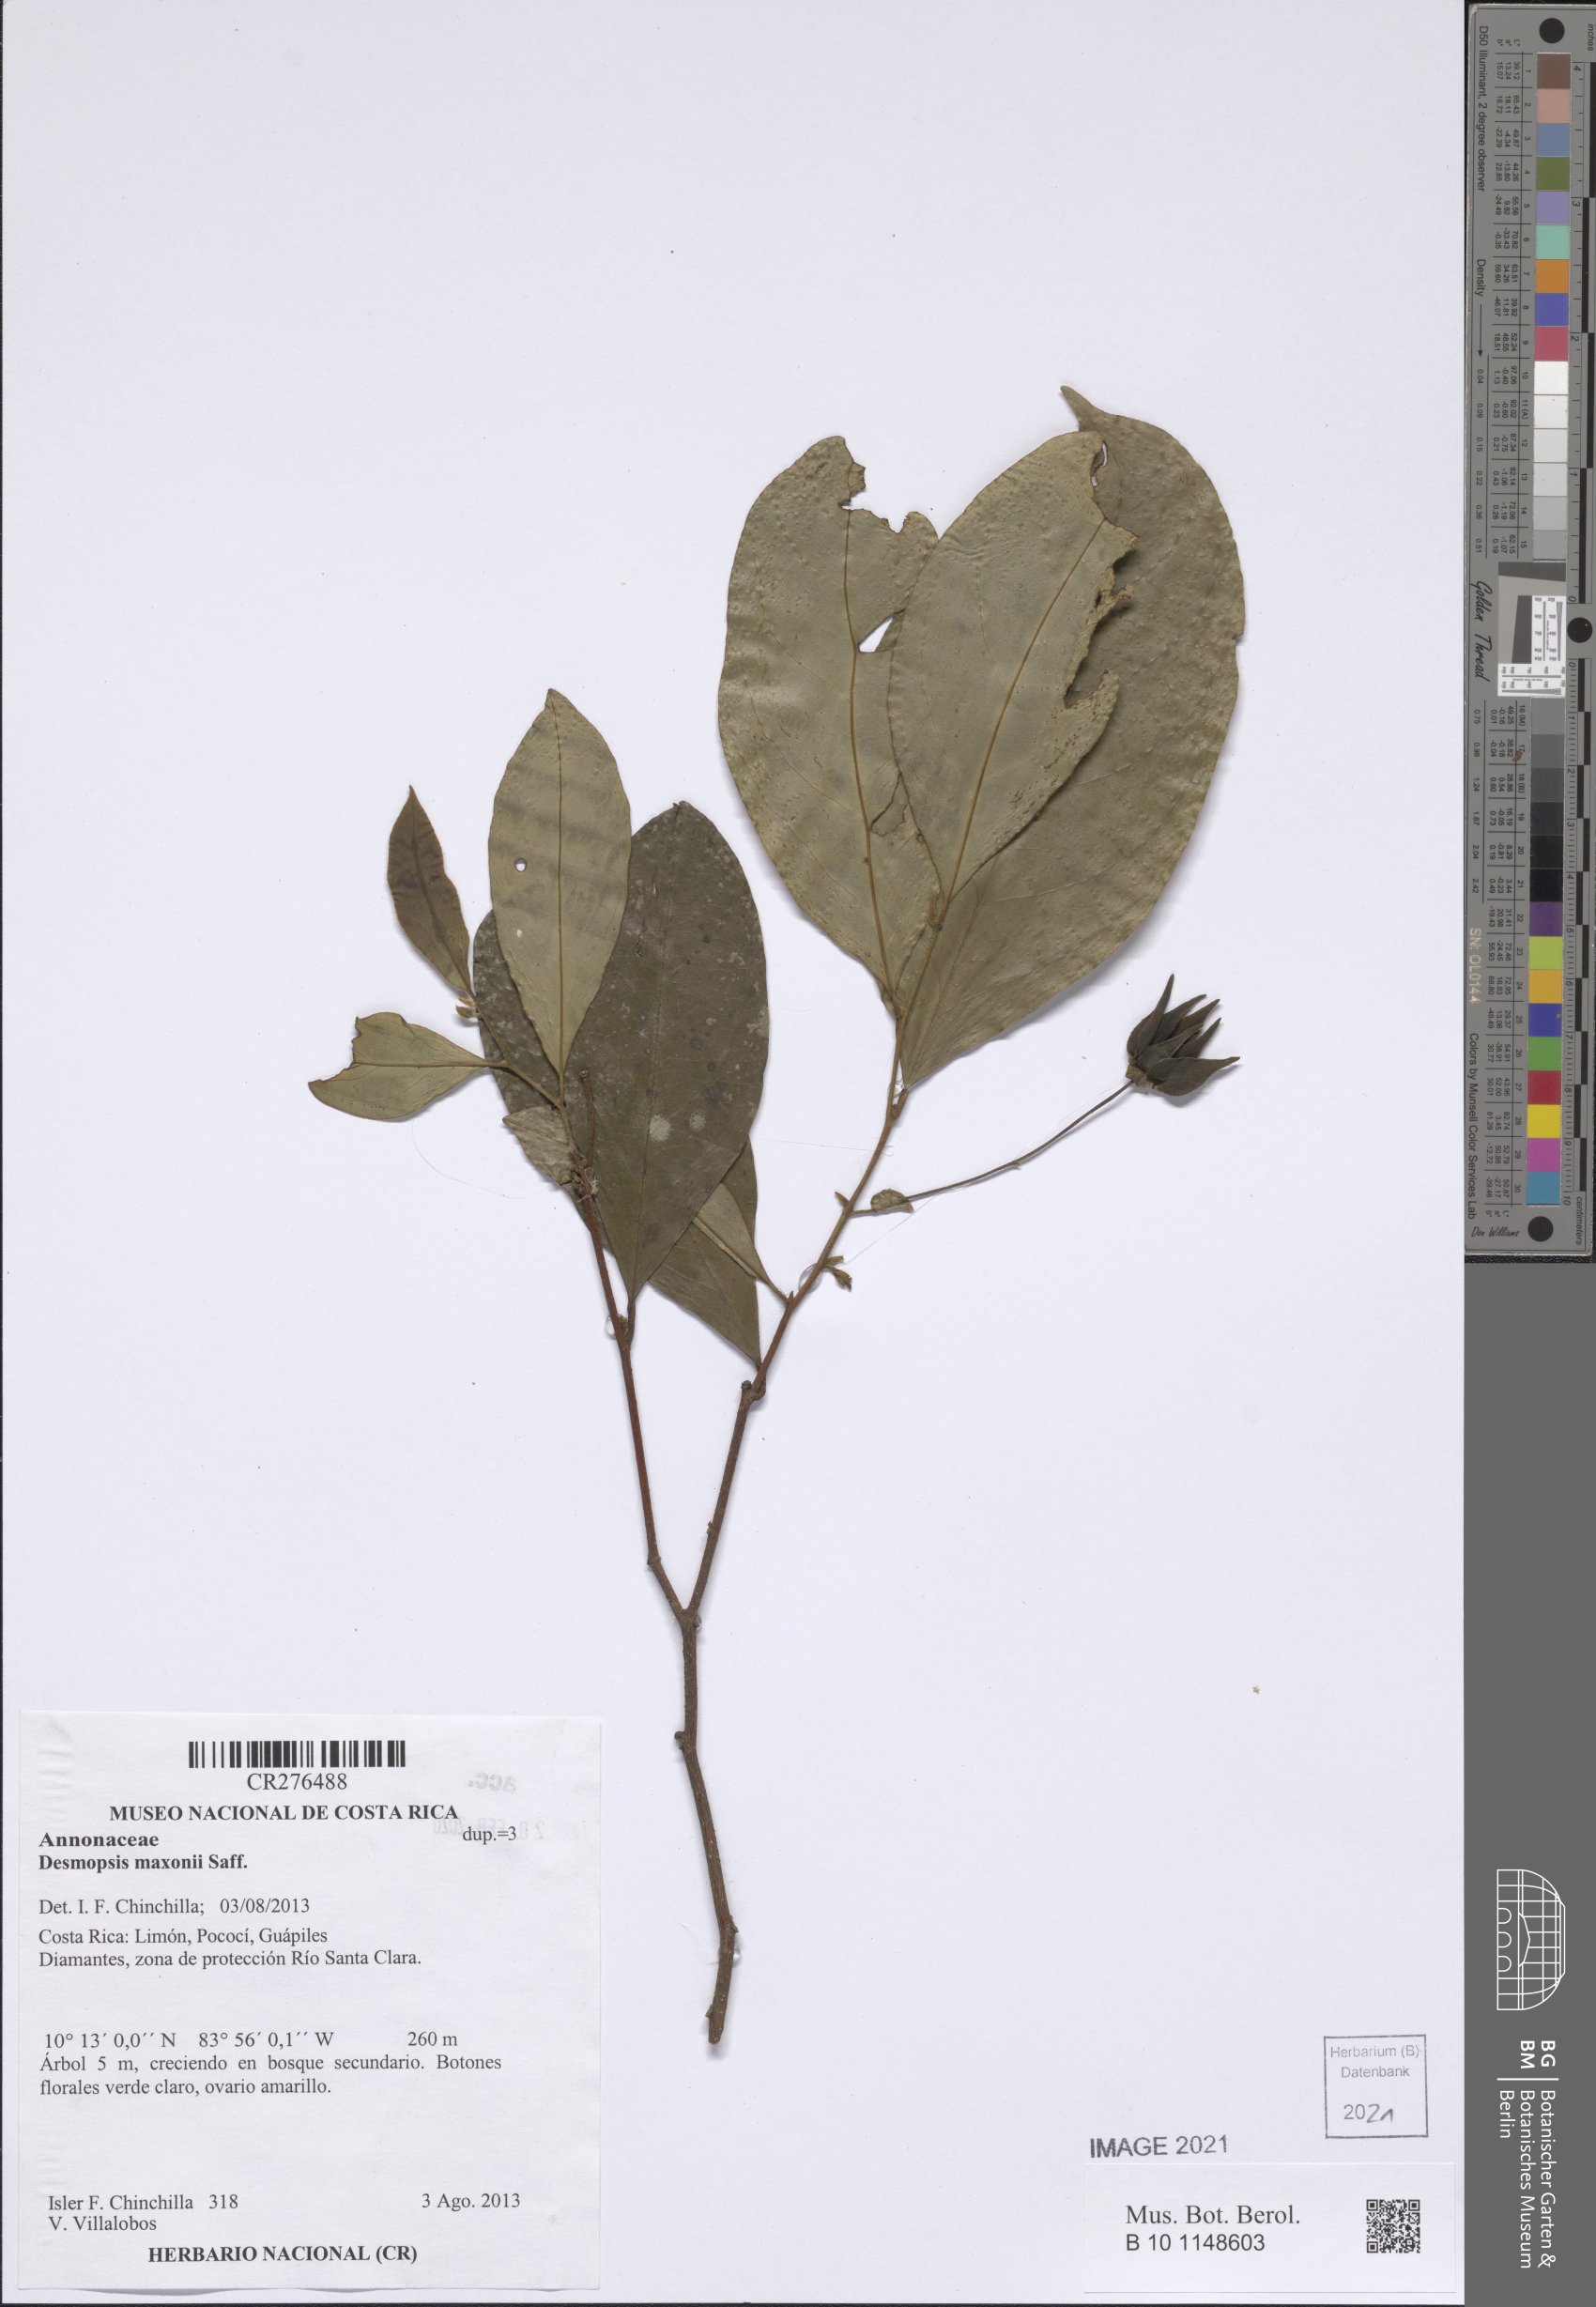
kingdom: Plantae
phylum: Tracheophyta
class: Magnoliopsida
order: Magnoliales
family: Annonaceae
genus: Desmopsis
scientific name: Desmopsis maxonii
